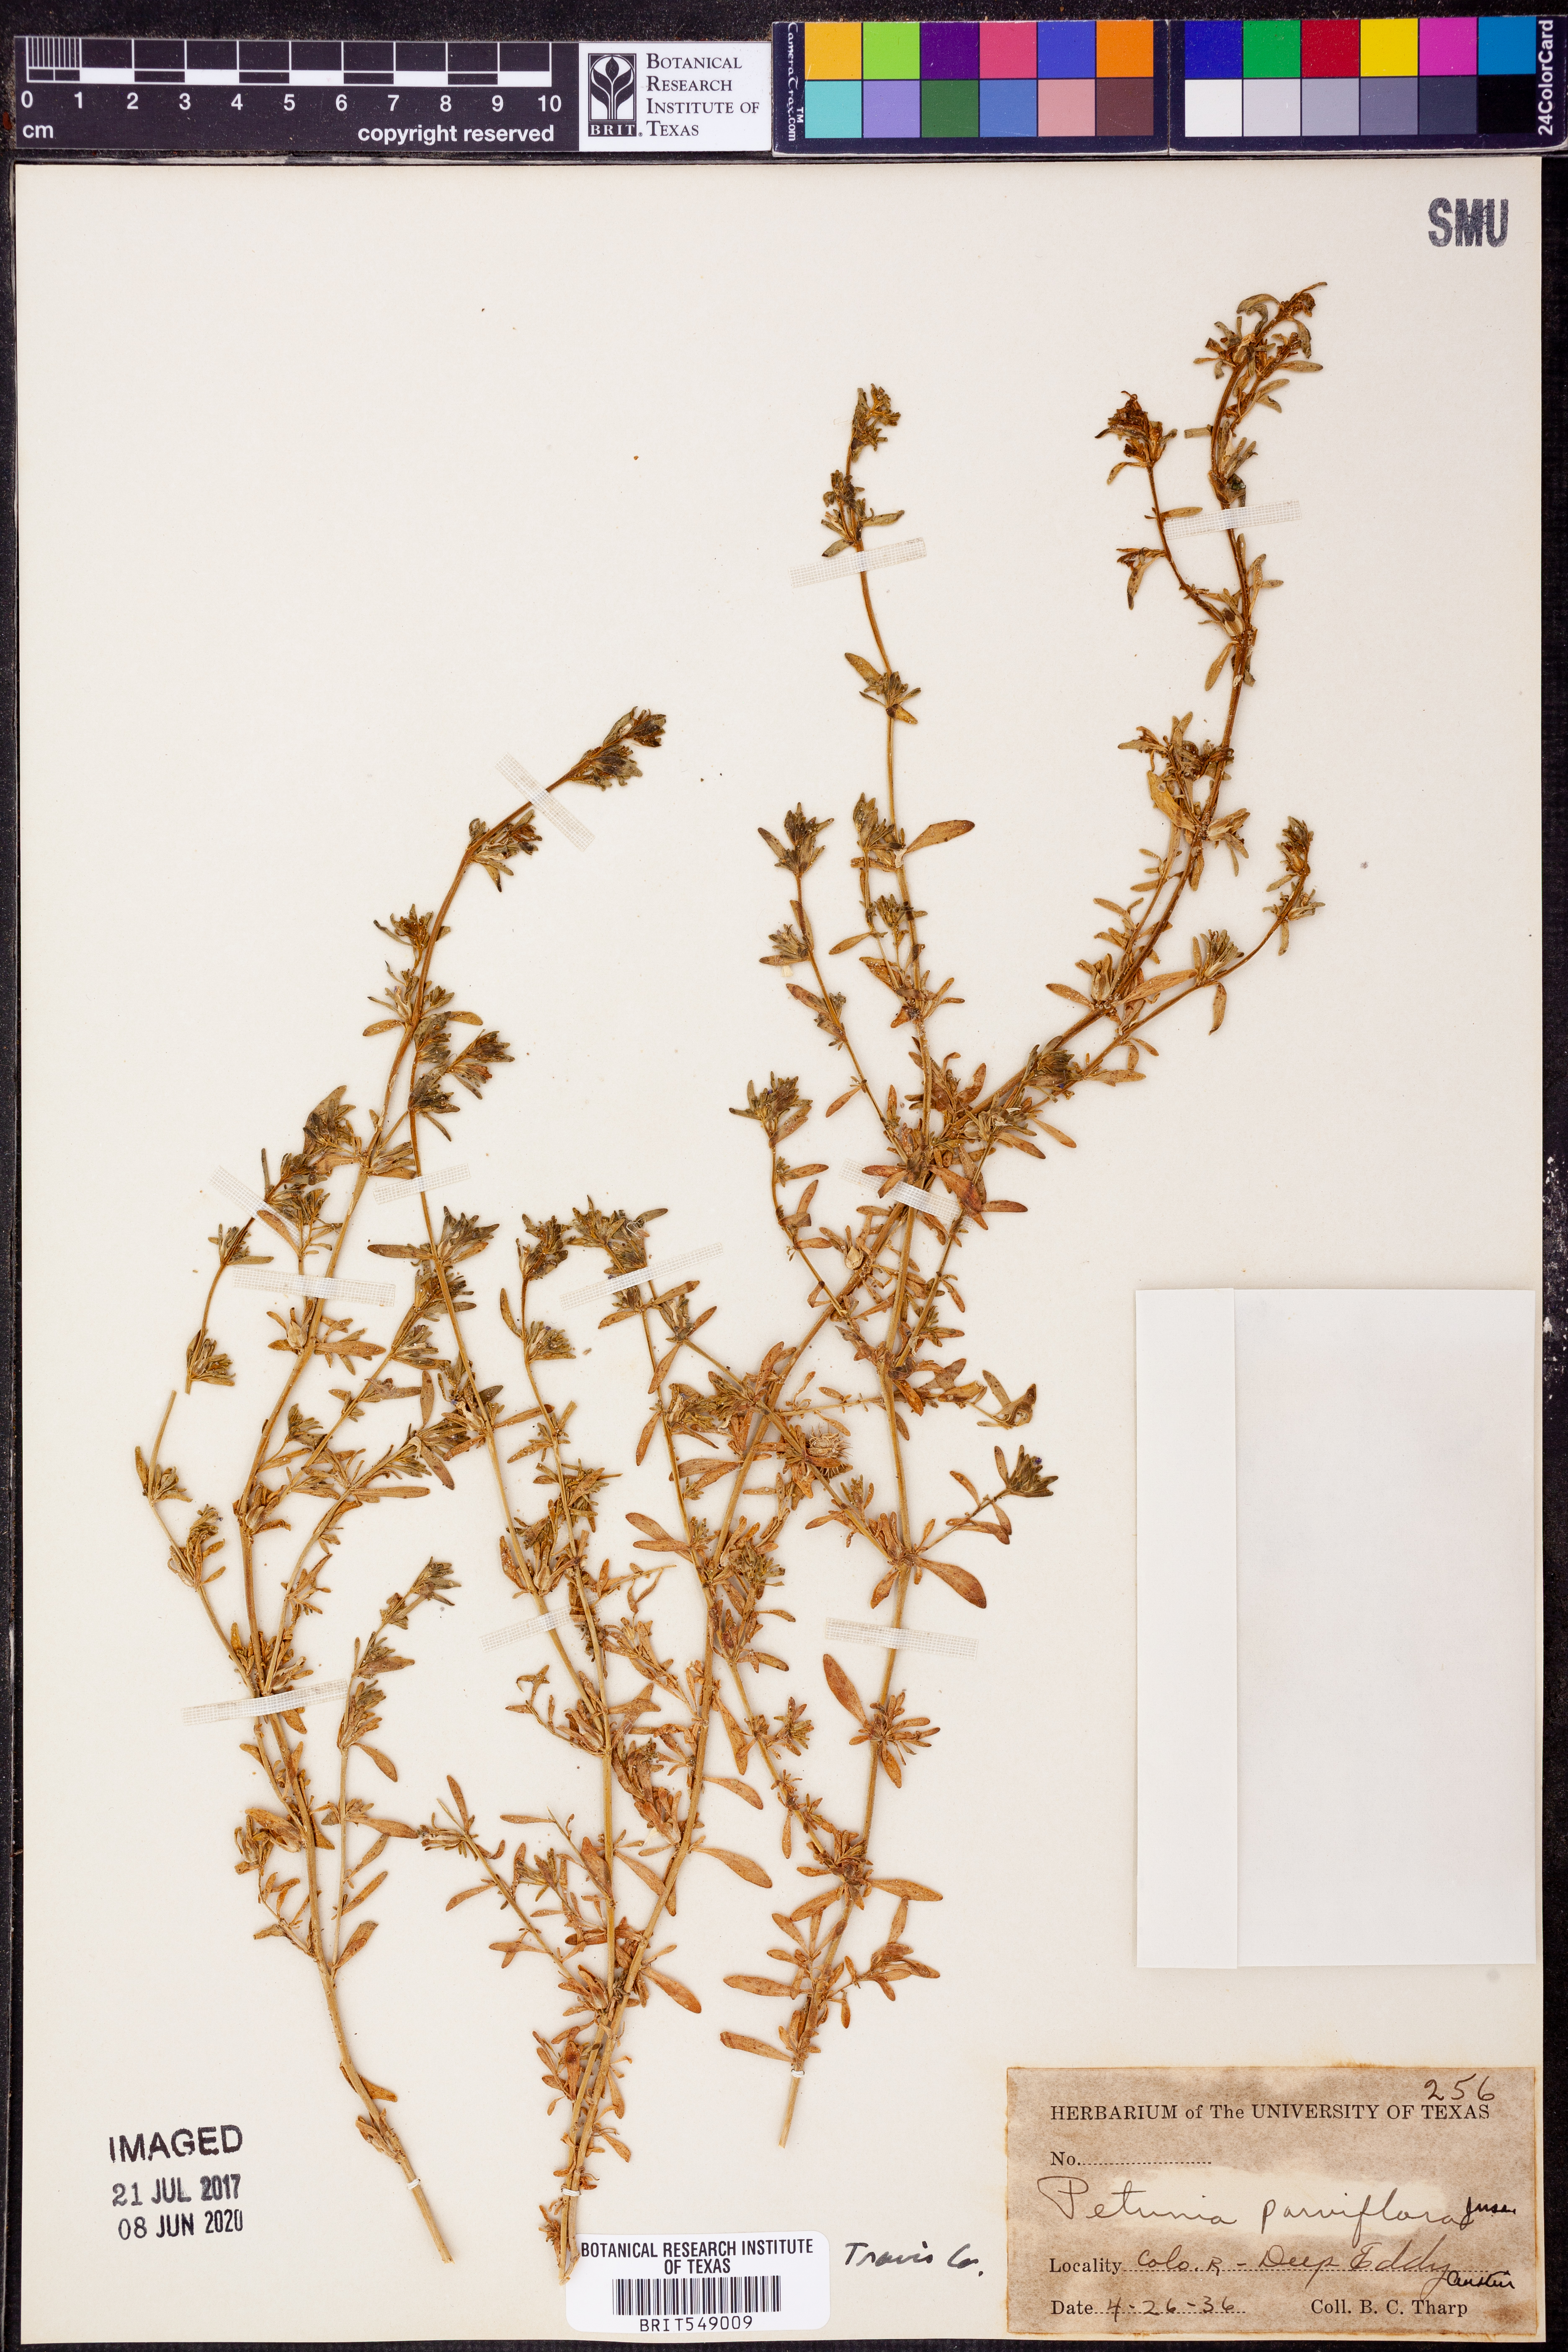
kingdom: Plantae
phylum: Tracheophyta
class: Magnoliopsida
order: Solanales
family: Solanaceae
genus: Calibrachoa
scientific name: Calibrachoa parviflora
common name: Seaside petunia
